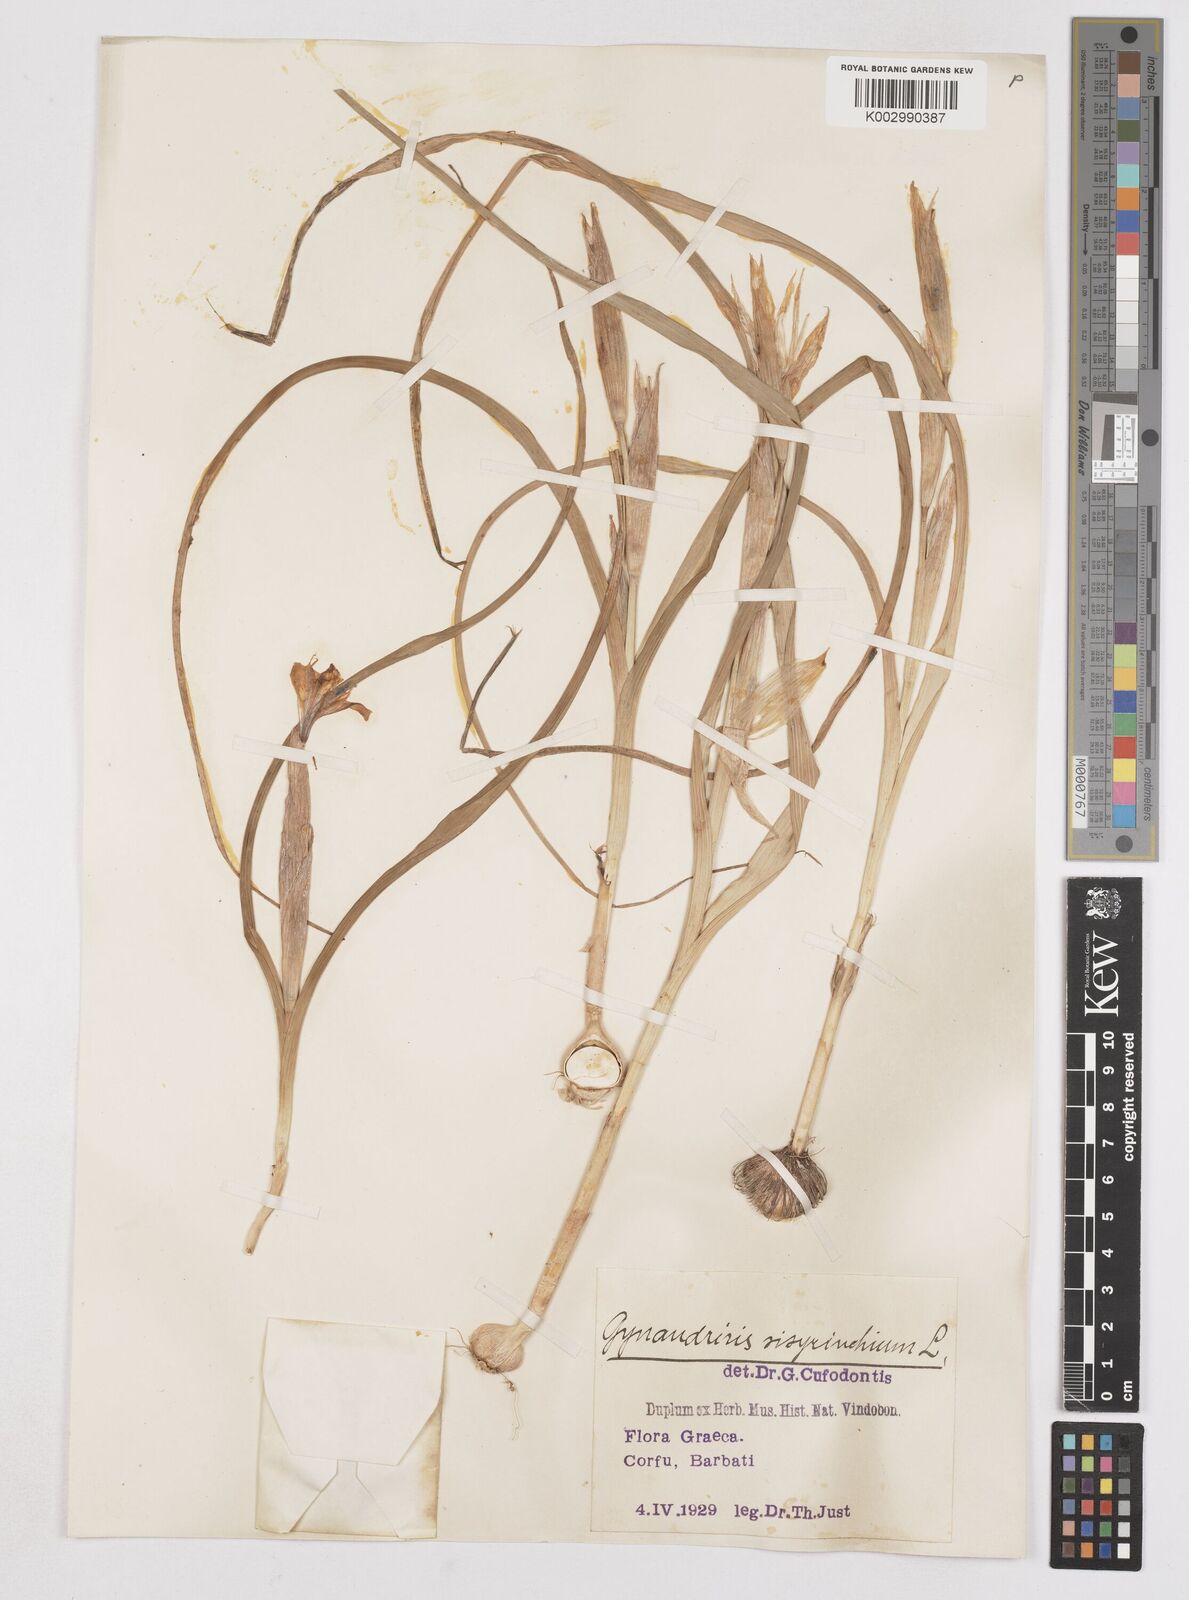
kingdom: Plantae
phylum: Tracheophyta
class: Liliopsida
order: Asparagales
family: Iridaceae
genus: Moraea
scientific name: Moraea sisyrinchium
